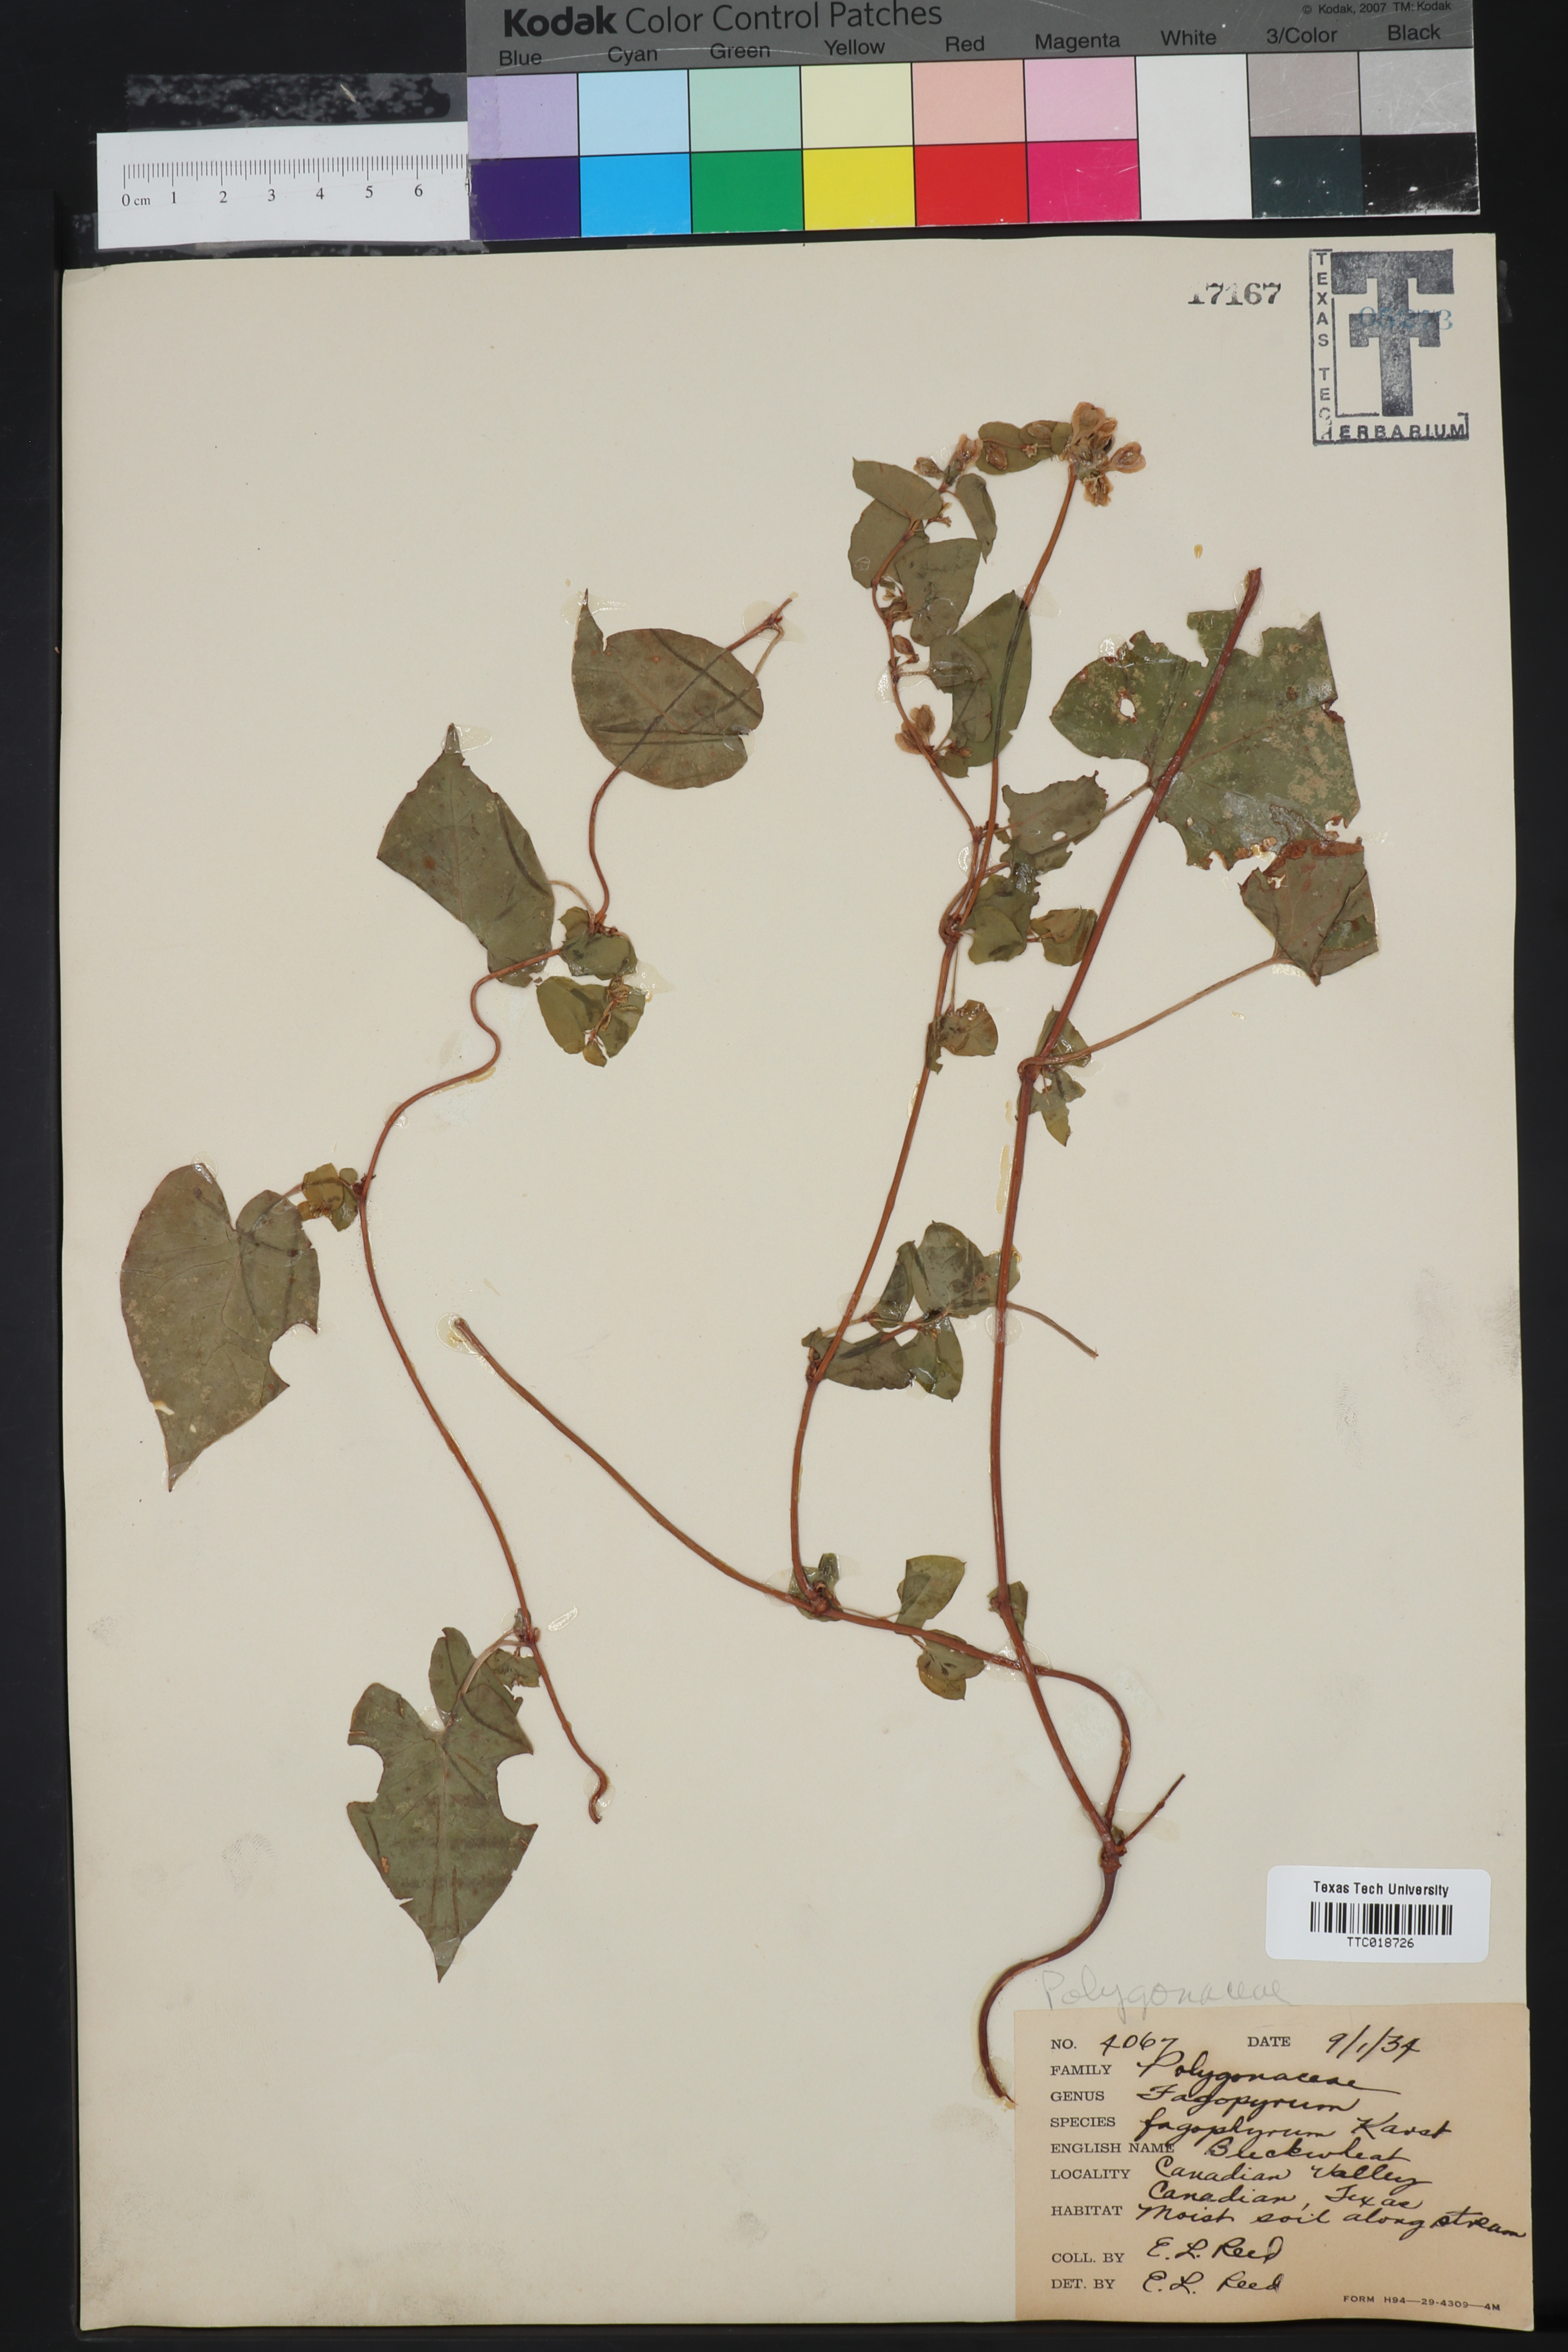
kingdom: Plantae
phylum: Tracheophyta
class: Magnoliopsida
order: Caryophyllales
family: Polygonaceae
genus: Fagopyrum
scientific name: Fagopyrum esculentum
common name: Buckwheat
